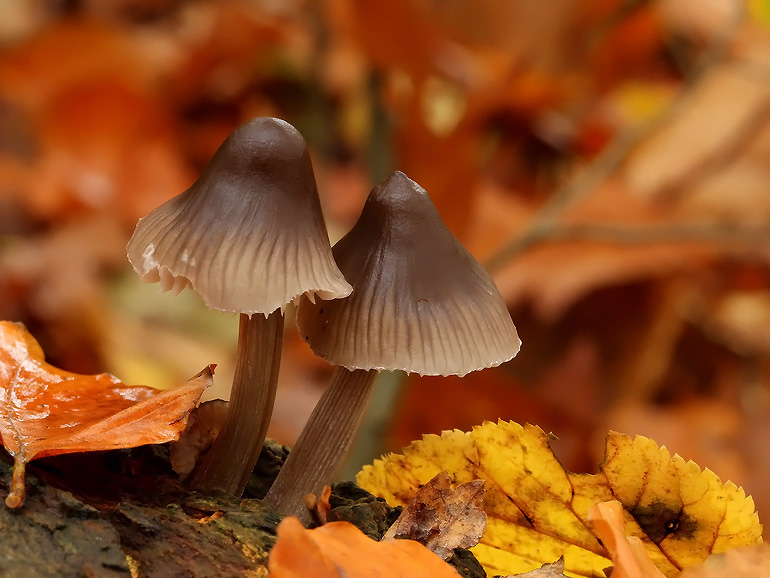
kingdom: Fungi
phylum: Basidiomycota
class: Agaricomycetes
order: Agaricales
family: Mycenaceae
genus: Mycena
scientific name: Mycena polygramma
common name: mangestribet huesvamp
